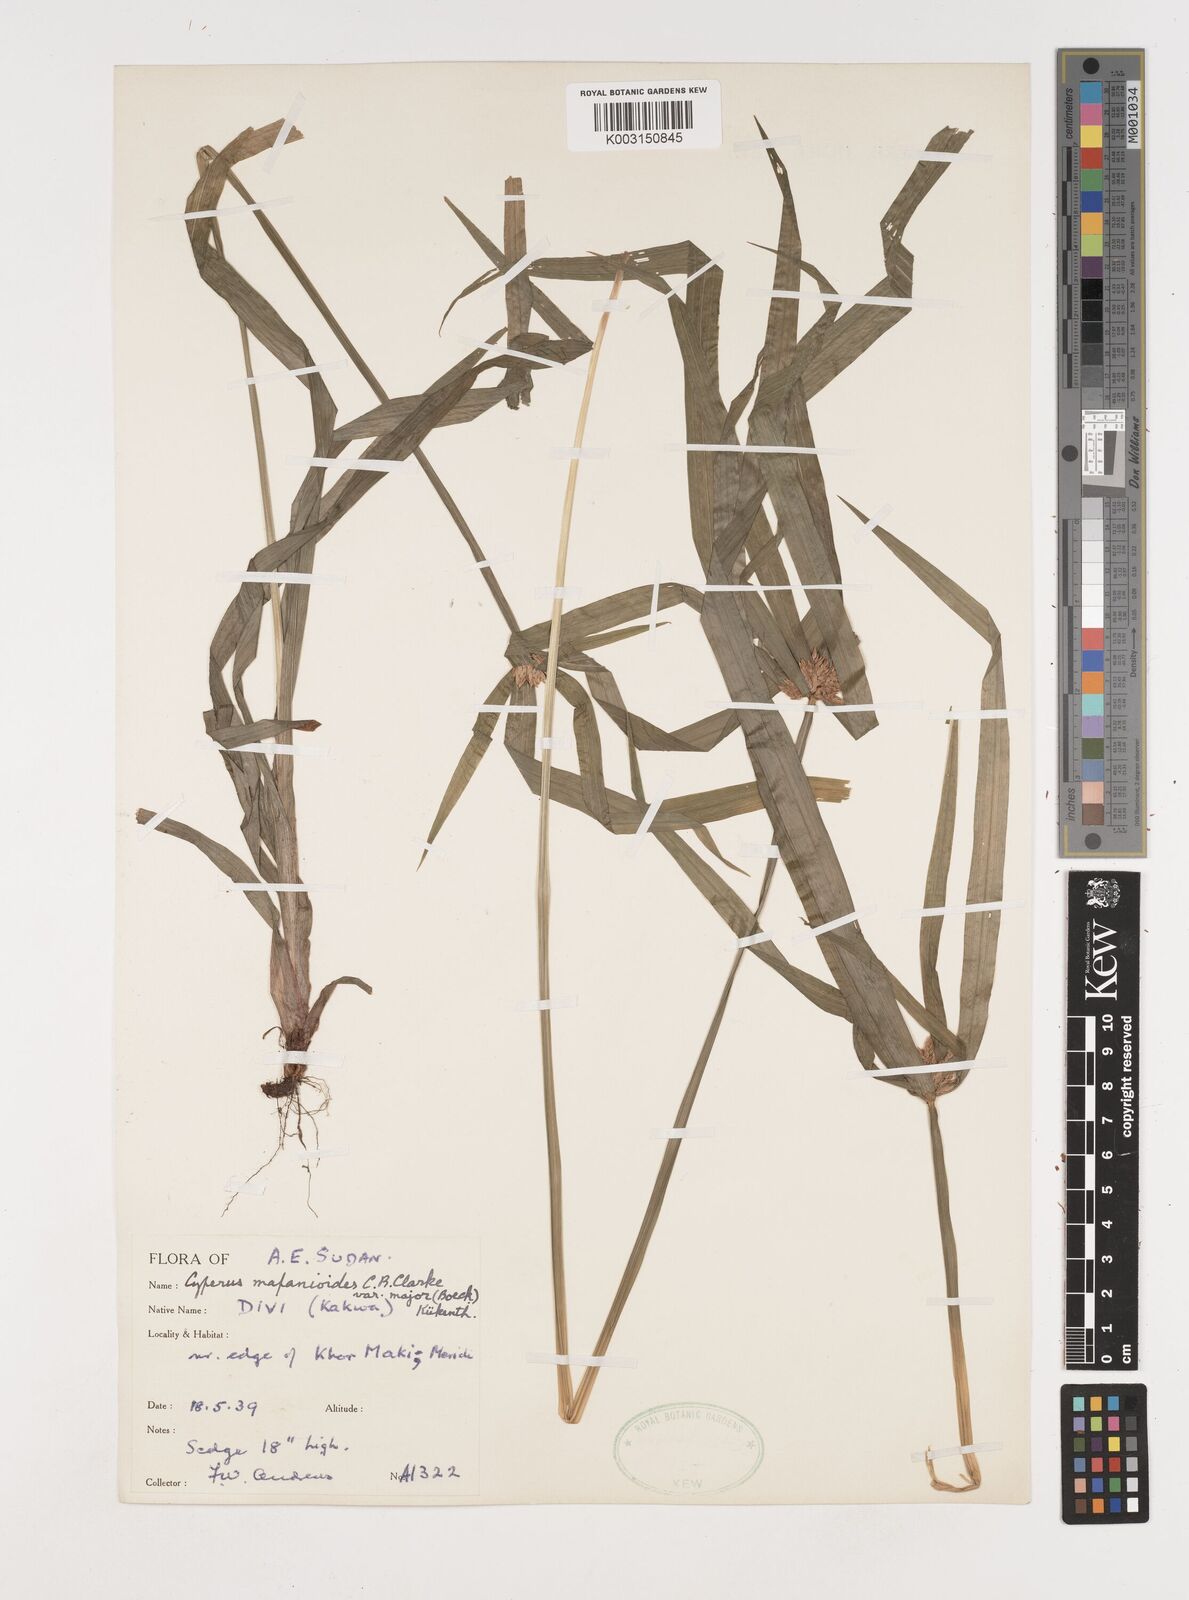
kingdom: Plantae
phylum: Tracheophyta
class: Liliopsida
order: Poales
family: Cyperaceae
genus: Cyperus
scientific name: Cyperus mapanioides
